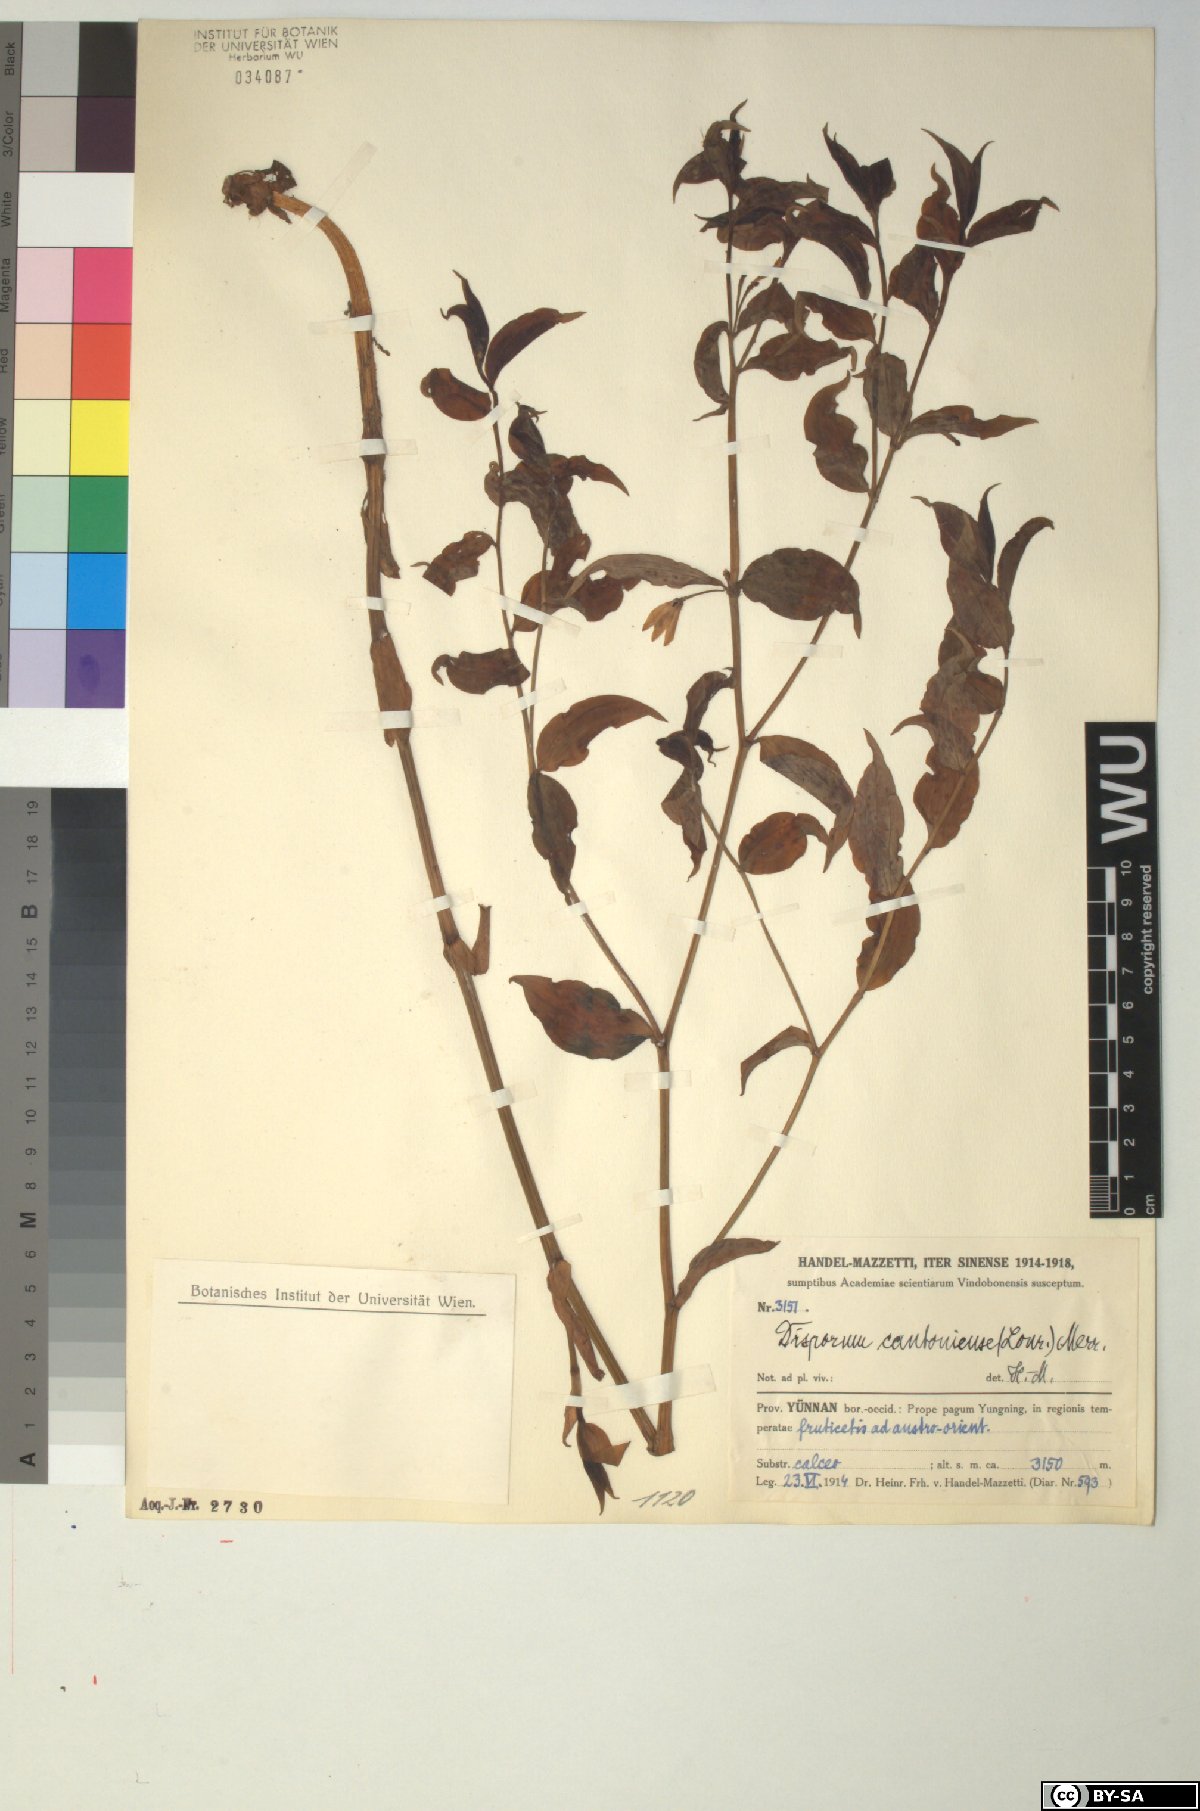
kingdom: Plantae
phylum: Tracheophyta
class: Liliopsida
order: Liliales
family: Colchicaceae
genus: Disporum
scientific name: Disporum cantoniense
